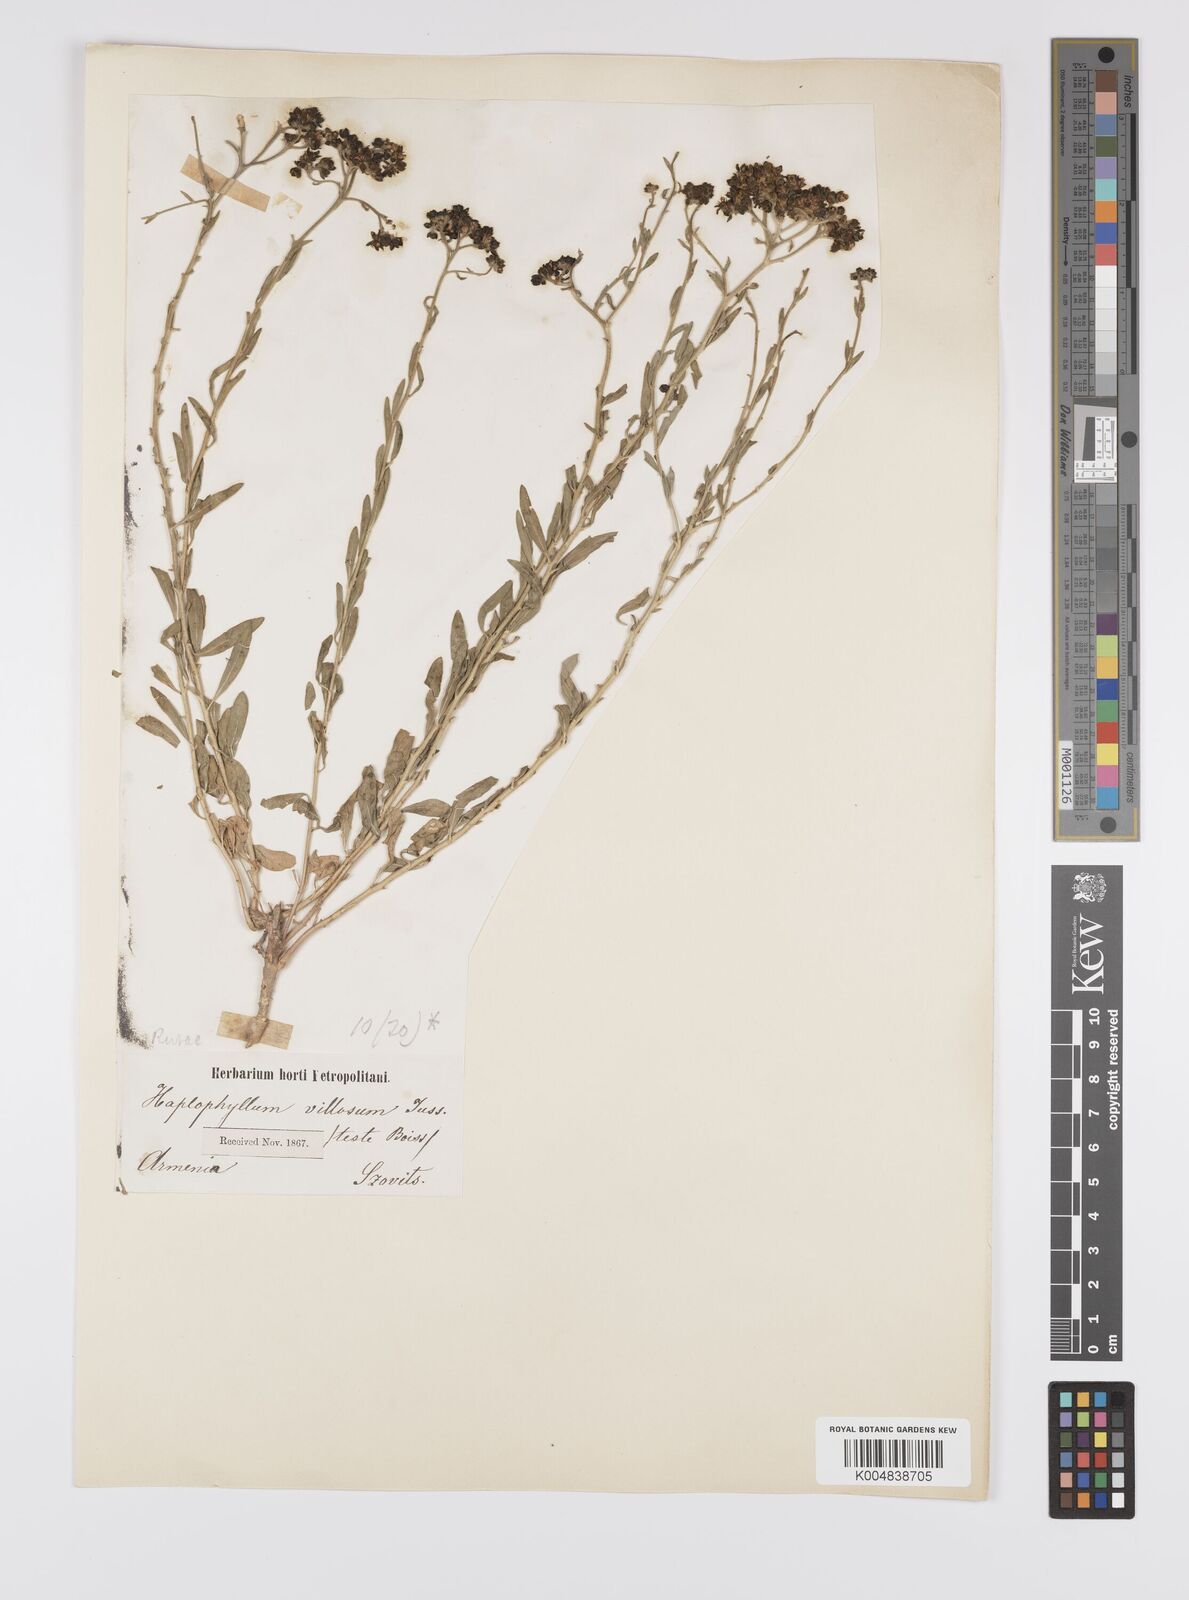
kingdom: Plantae
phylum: Tracheophyta
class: Magnoliopsida
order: Sapindales
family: Rutaceae
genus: Haplophyllum
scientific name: Haplophyllum villosum
